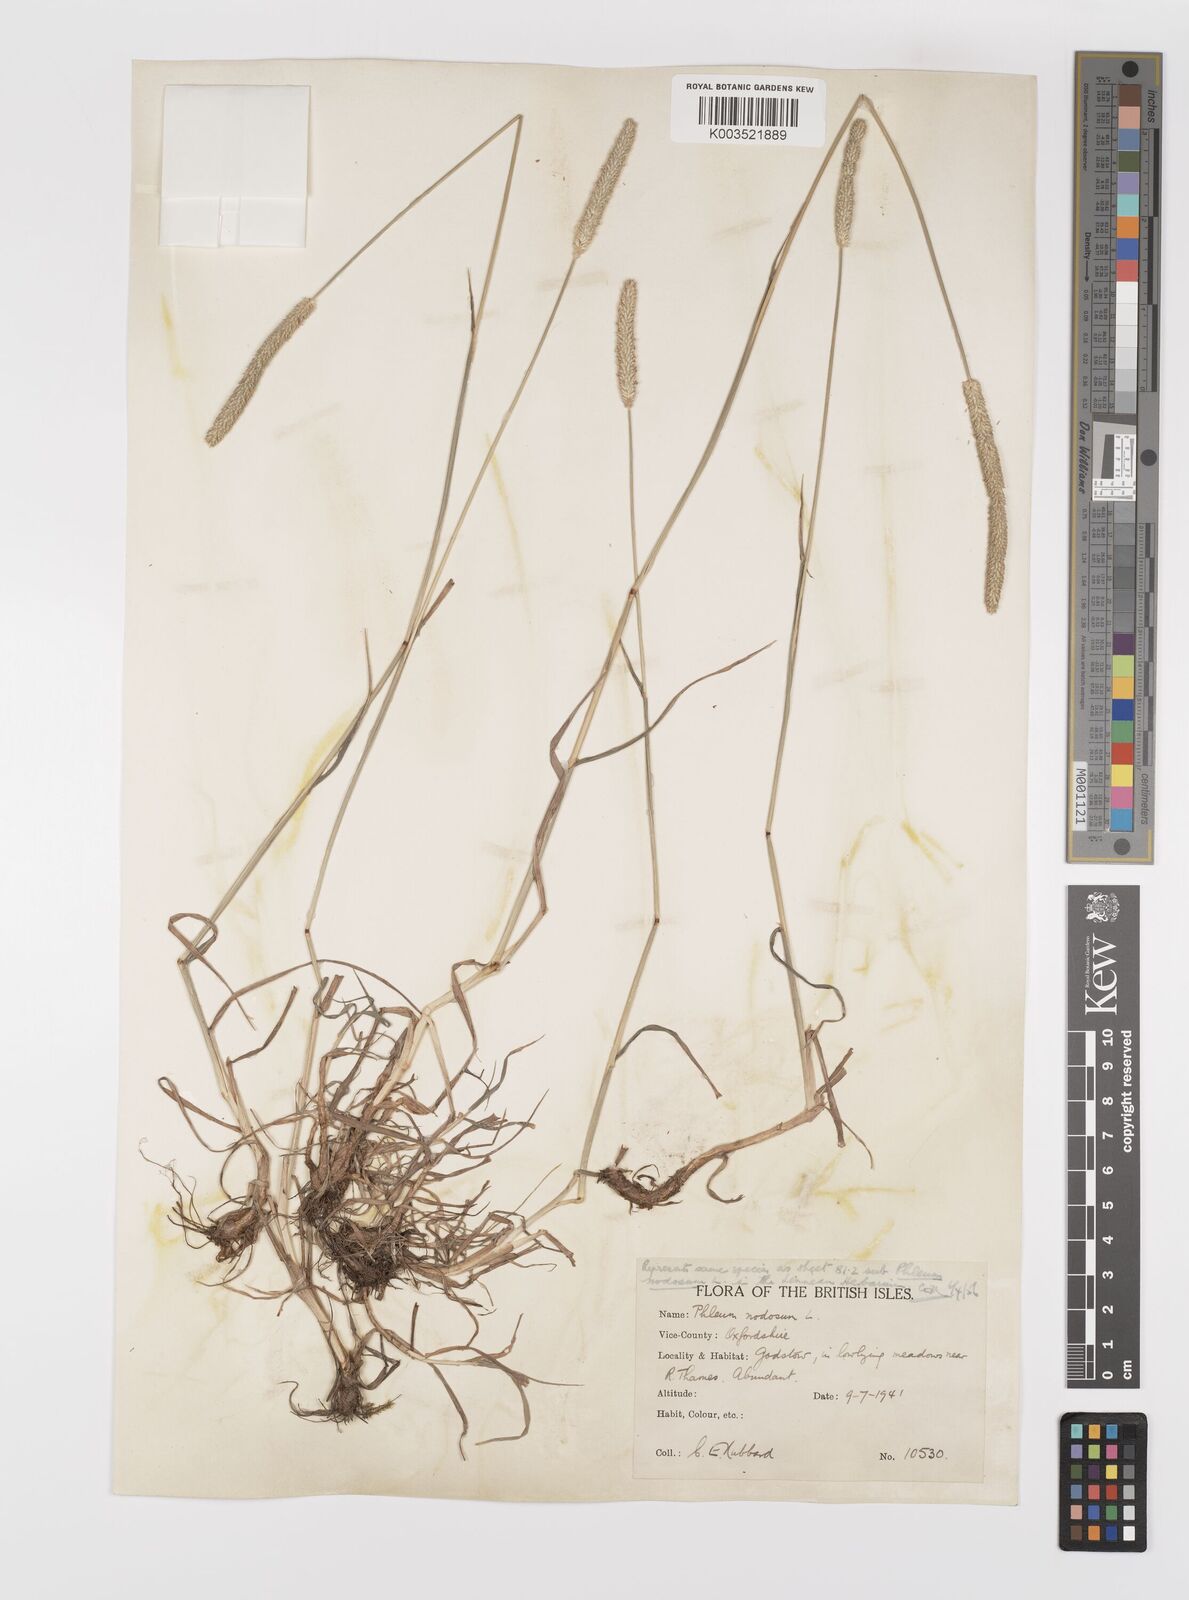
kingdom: Plantae
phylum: Tracheophyta
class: Liliopsida
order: Poales
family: Poaceae
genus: Phleum
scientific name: Phleum bertolonii
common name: Smaller cat's-tail
